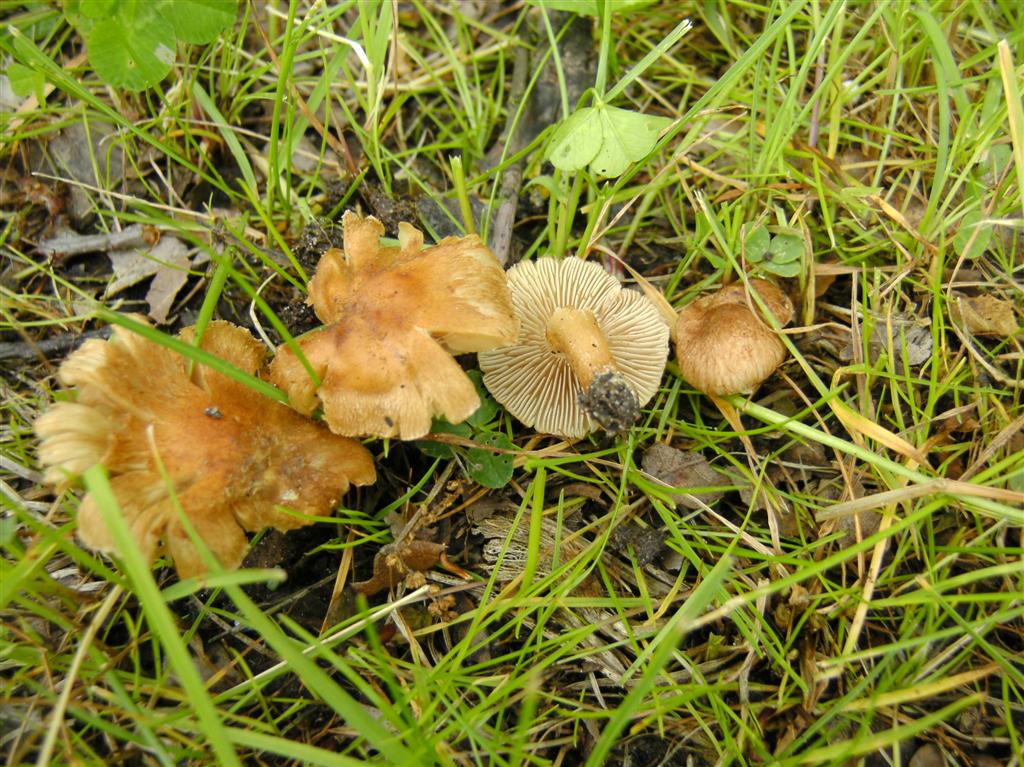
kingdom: Fungi
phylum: Basidiomycota
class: Agaricomycetes
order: Agaricales
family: Inocybaceae
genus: Inocybe
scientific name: Inocybe semifulva
